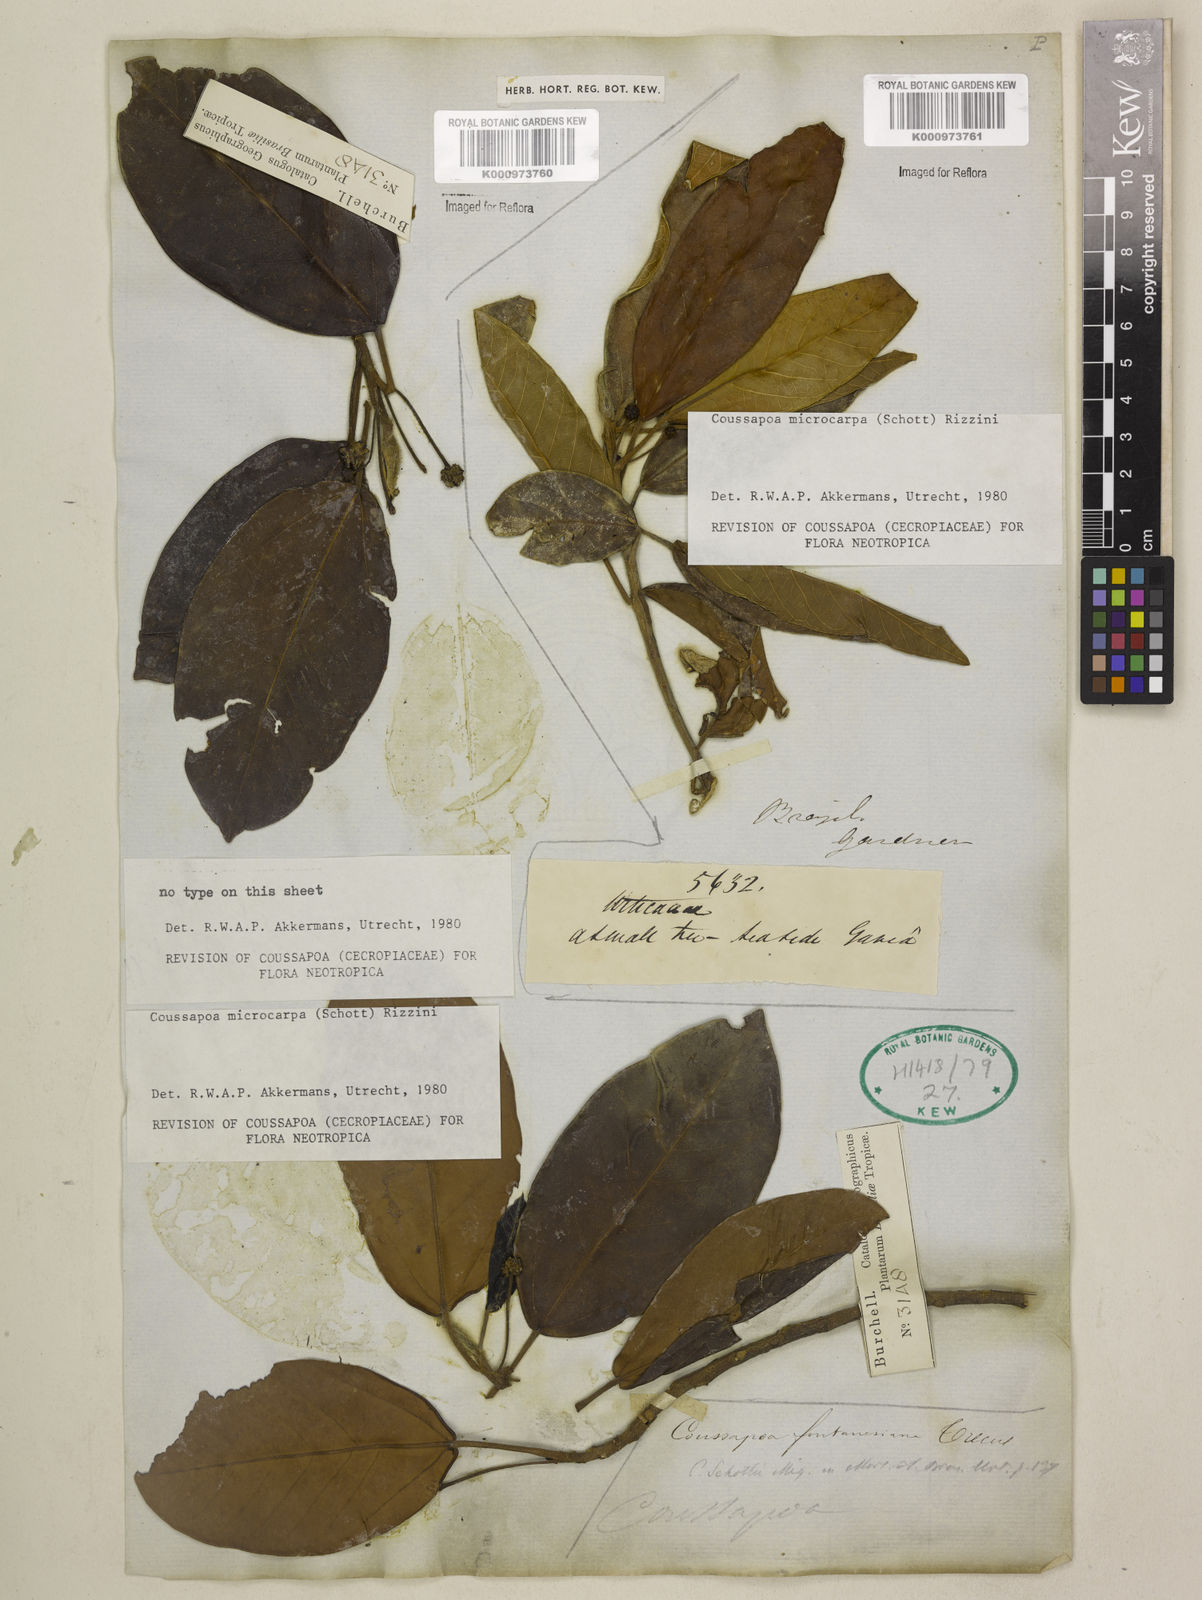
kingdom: Plantae
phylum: Tracheophyta
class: Magnoliopsida
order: Rosales
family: Urticaceae
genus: Coussapoa
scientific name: Coussapoa microcarpa
